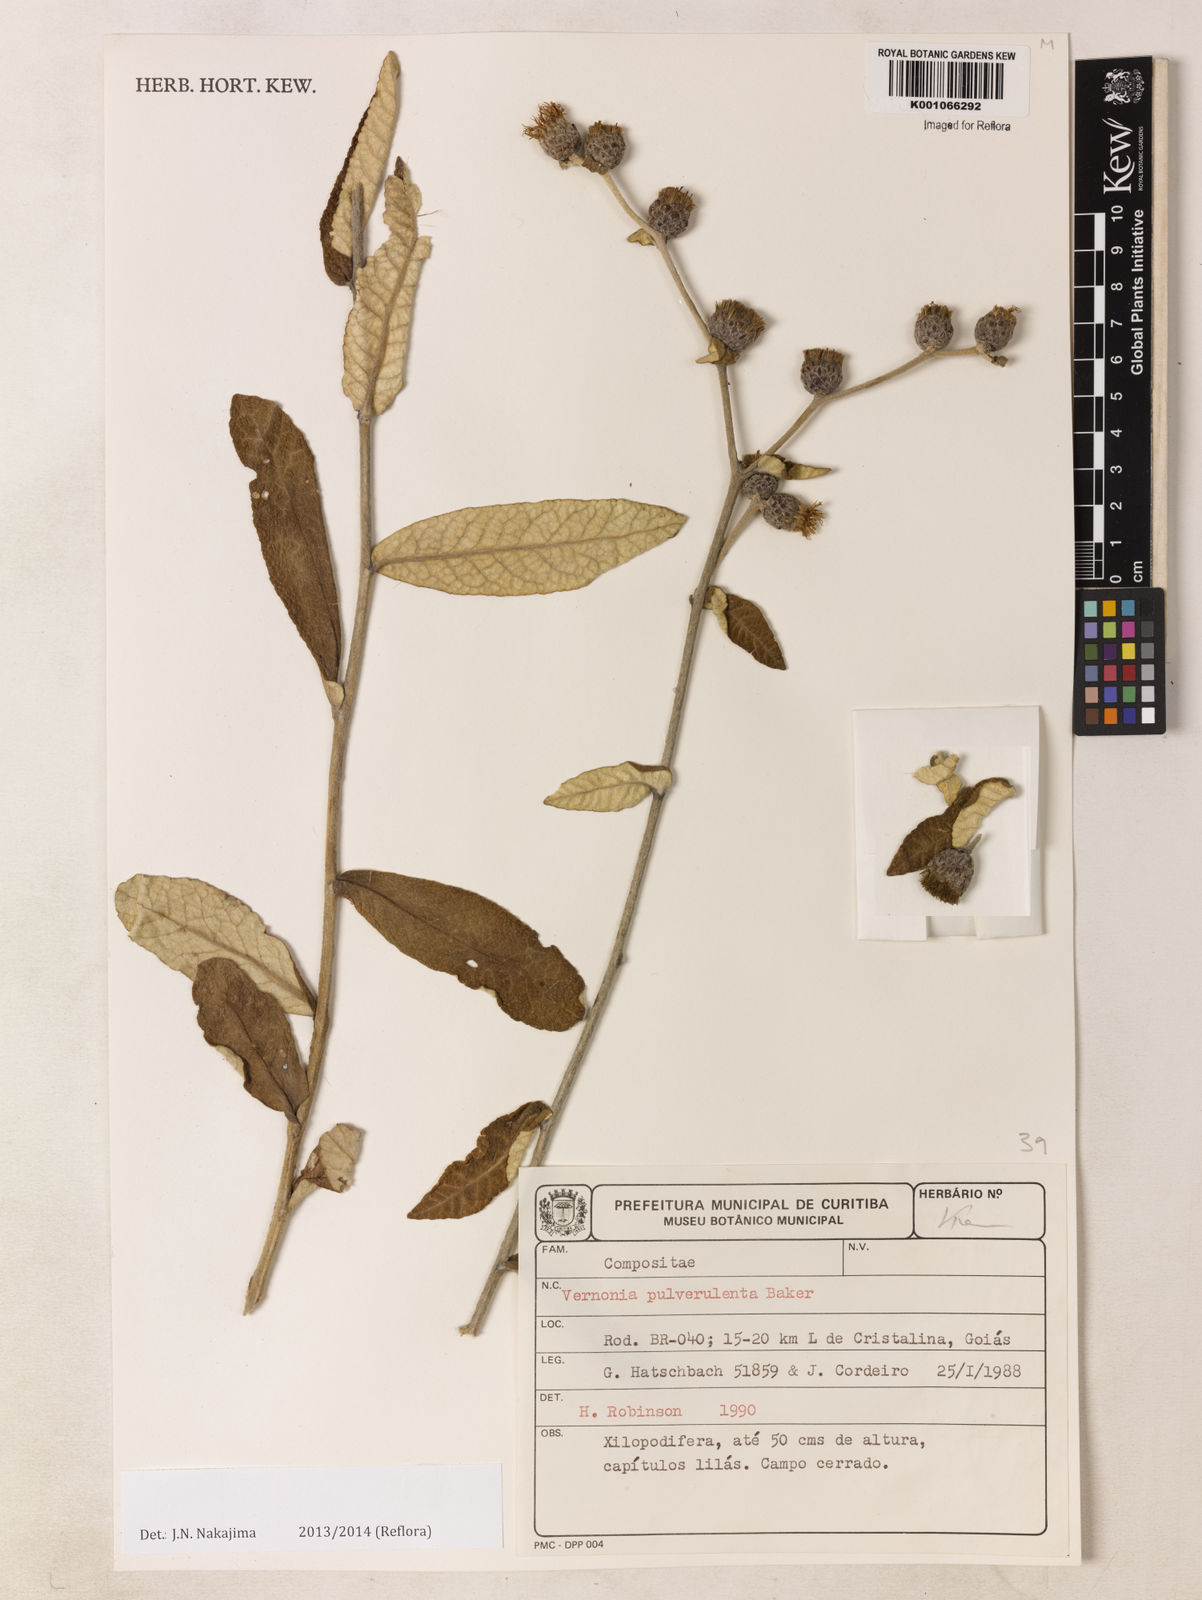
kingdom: Plantae
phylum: Tracheophyta
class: Magnoliopsida
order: Asterales
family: Asteraceae
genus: Lessingianthus
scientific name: Lessingianthus pulverulentus
